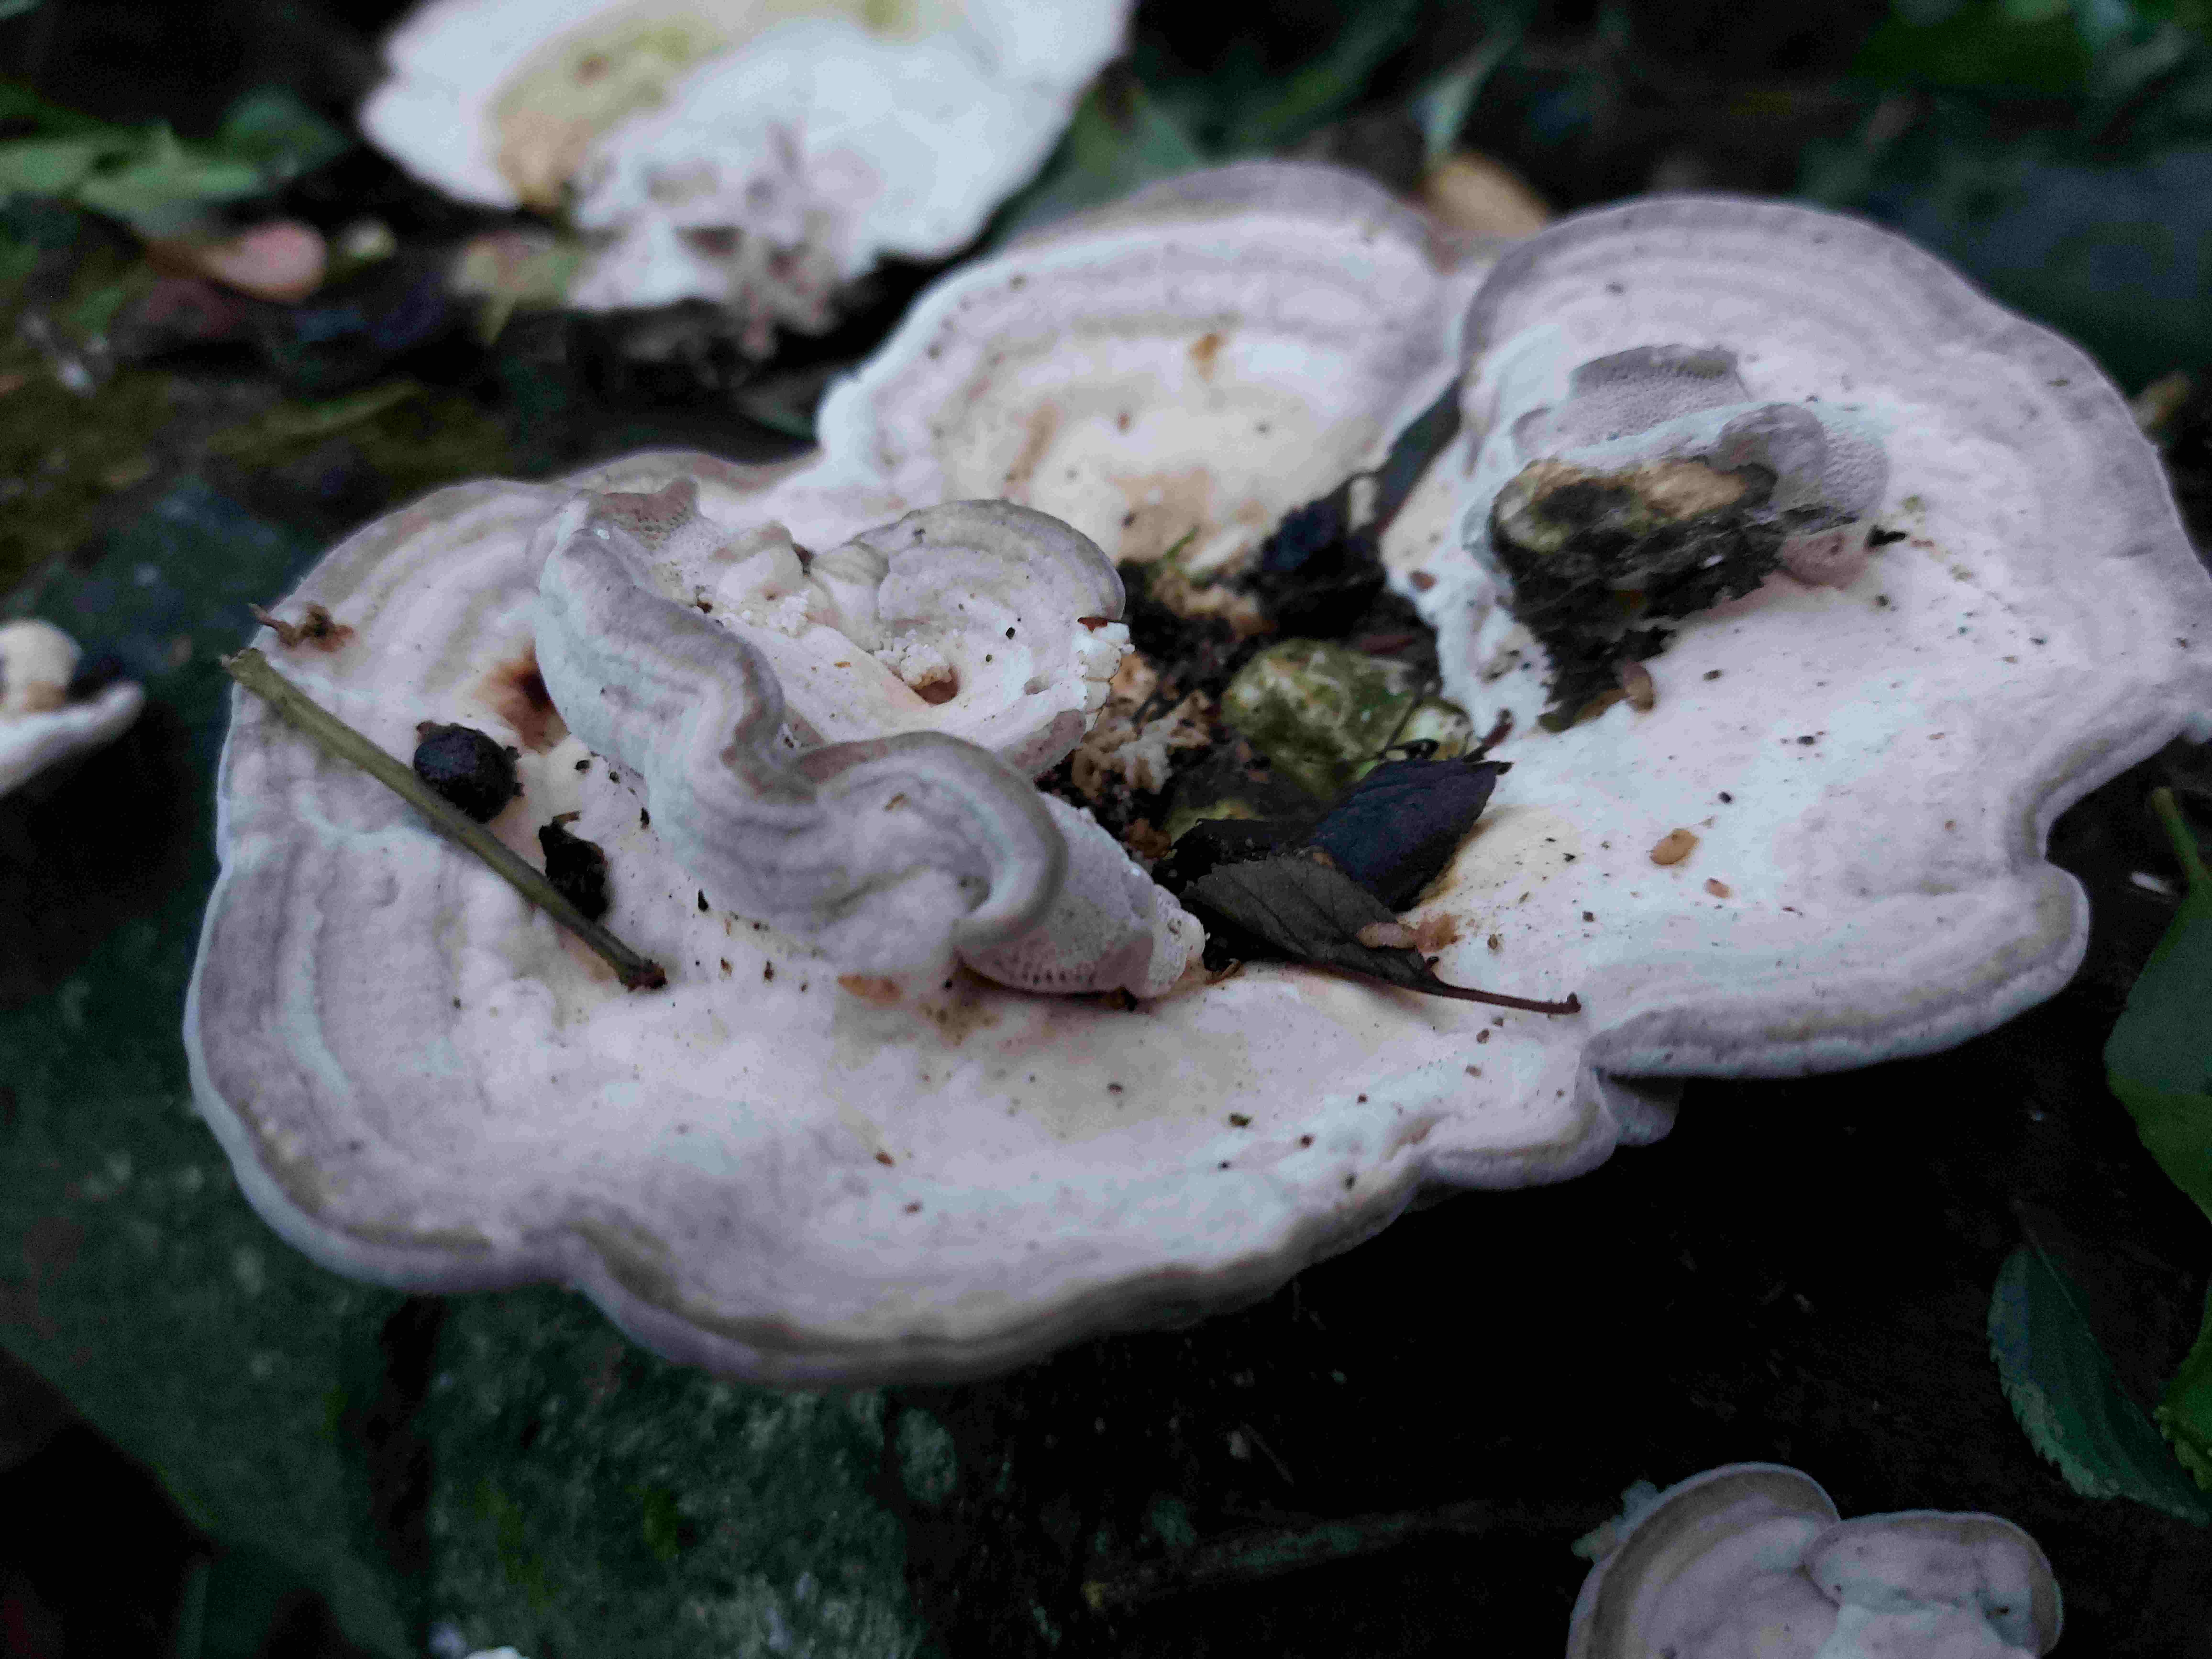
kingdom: Fungi
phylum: Basidiomycota
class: Agaricomycetes
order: Polyporales
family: Polyporaceae
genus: Trametes
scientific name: Trametes gibbosa
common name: puklet læderporesvamp
